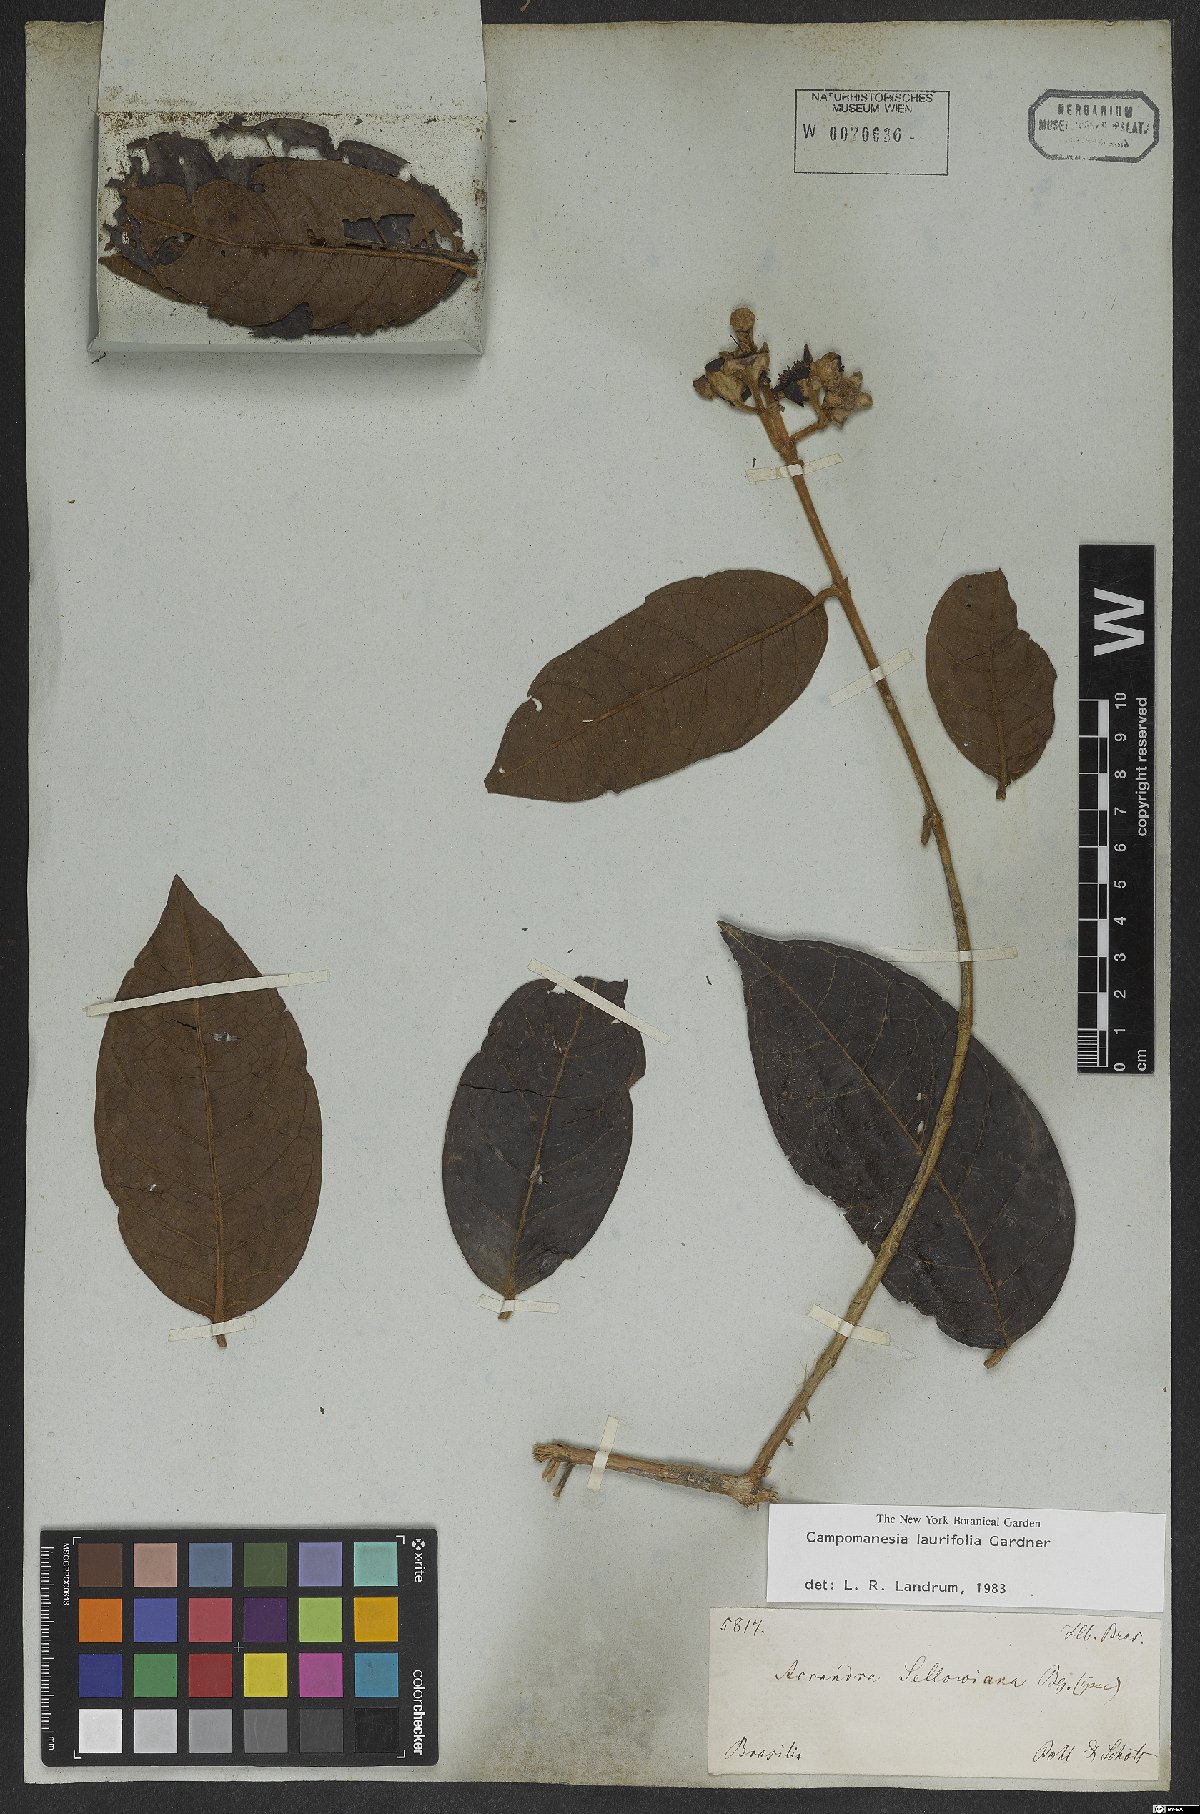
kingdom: Plantae
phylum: Tracheophyta
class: Magnoliopsida
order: Myrtales
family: Myrtaceae
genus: Campomanesia
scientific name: Campomanesia laurifolia
